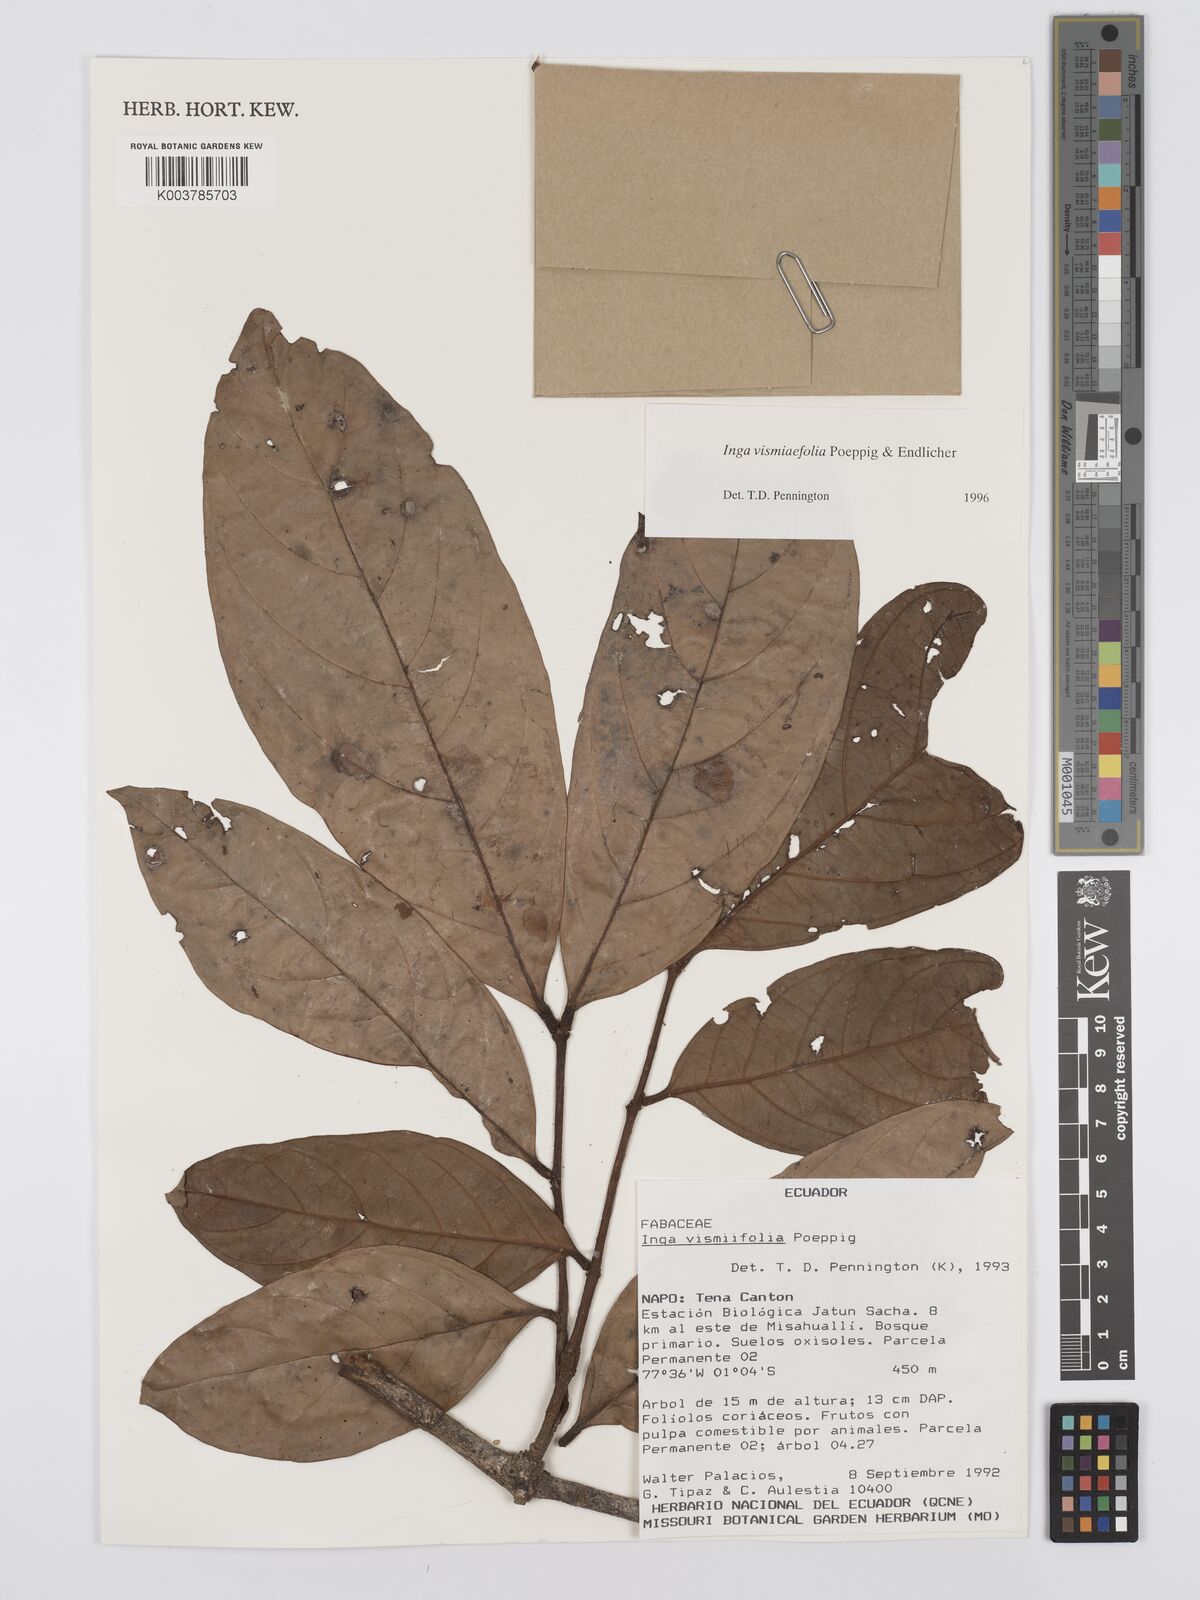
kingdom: Plantae
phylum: Tracheophyta
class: Magnoliopsida
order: Fabales
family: Fabaceae
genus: Inga
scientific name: Inga vismiifolia
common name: Howler monkey inga
